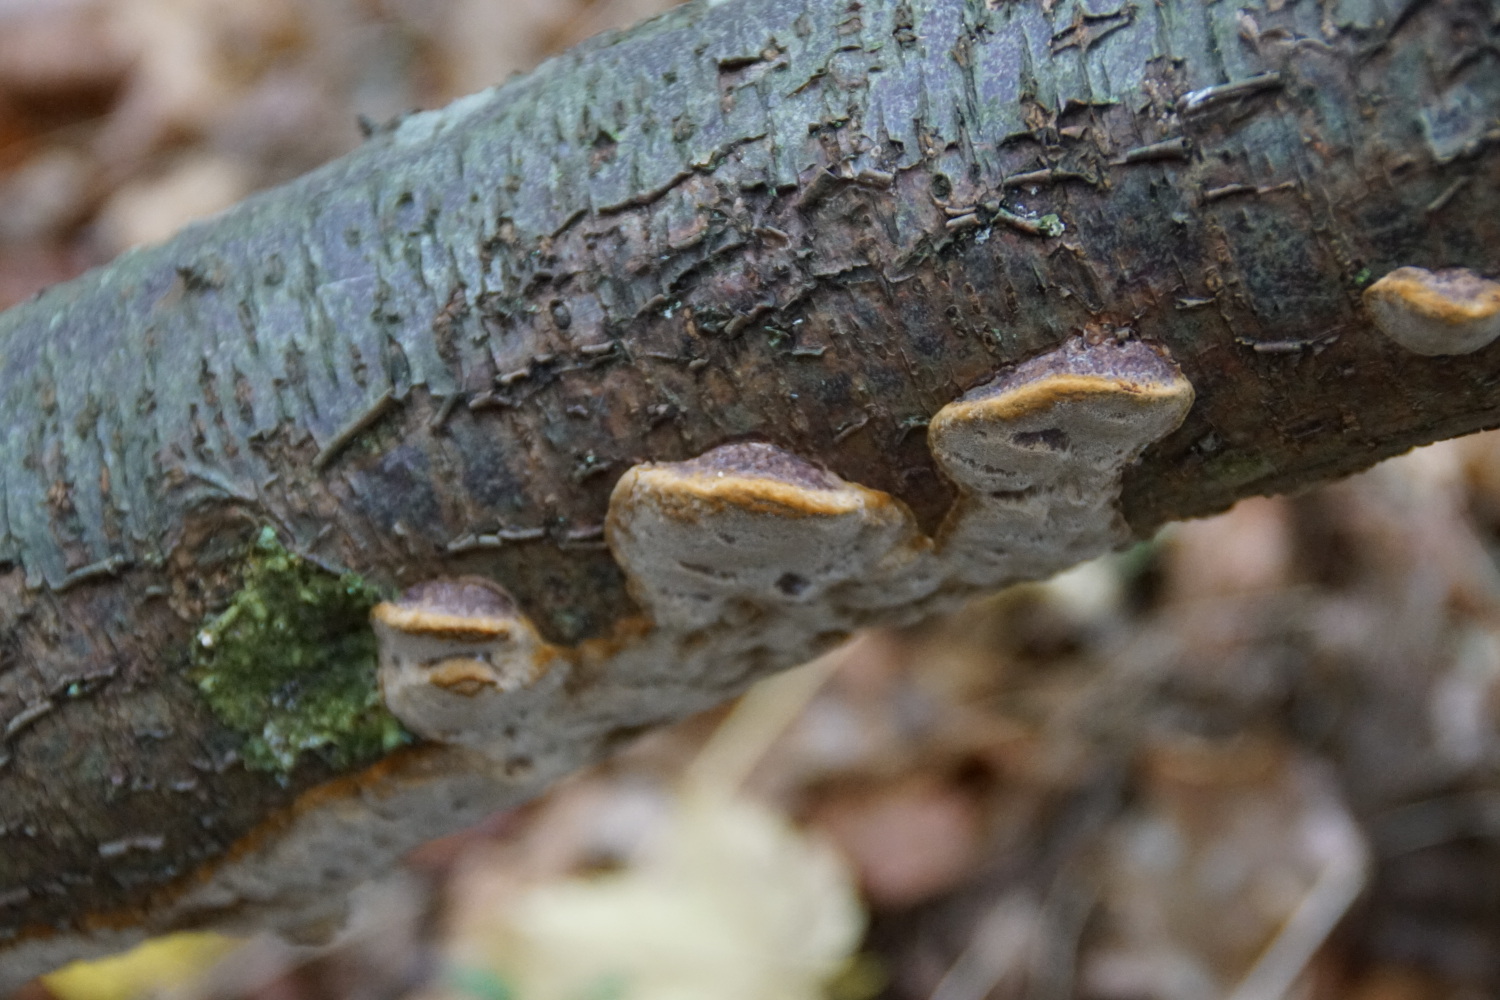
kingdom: Fungi
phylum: Basidiomycota
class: Agaricomycetes
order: Hymenochaetales
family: Hymenochaetaceae
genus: Phellinus
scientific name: Phellinus pomaceus
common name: blomme-ildporesvamp
